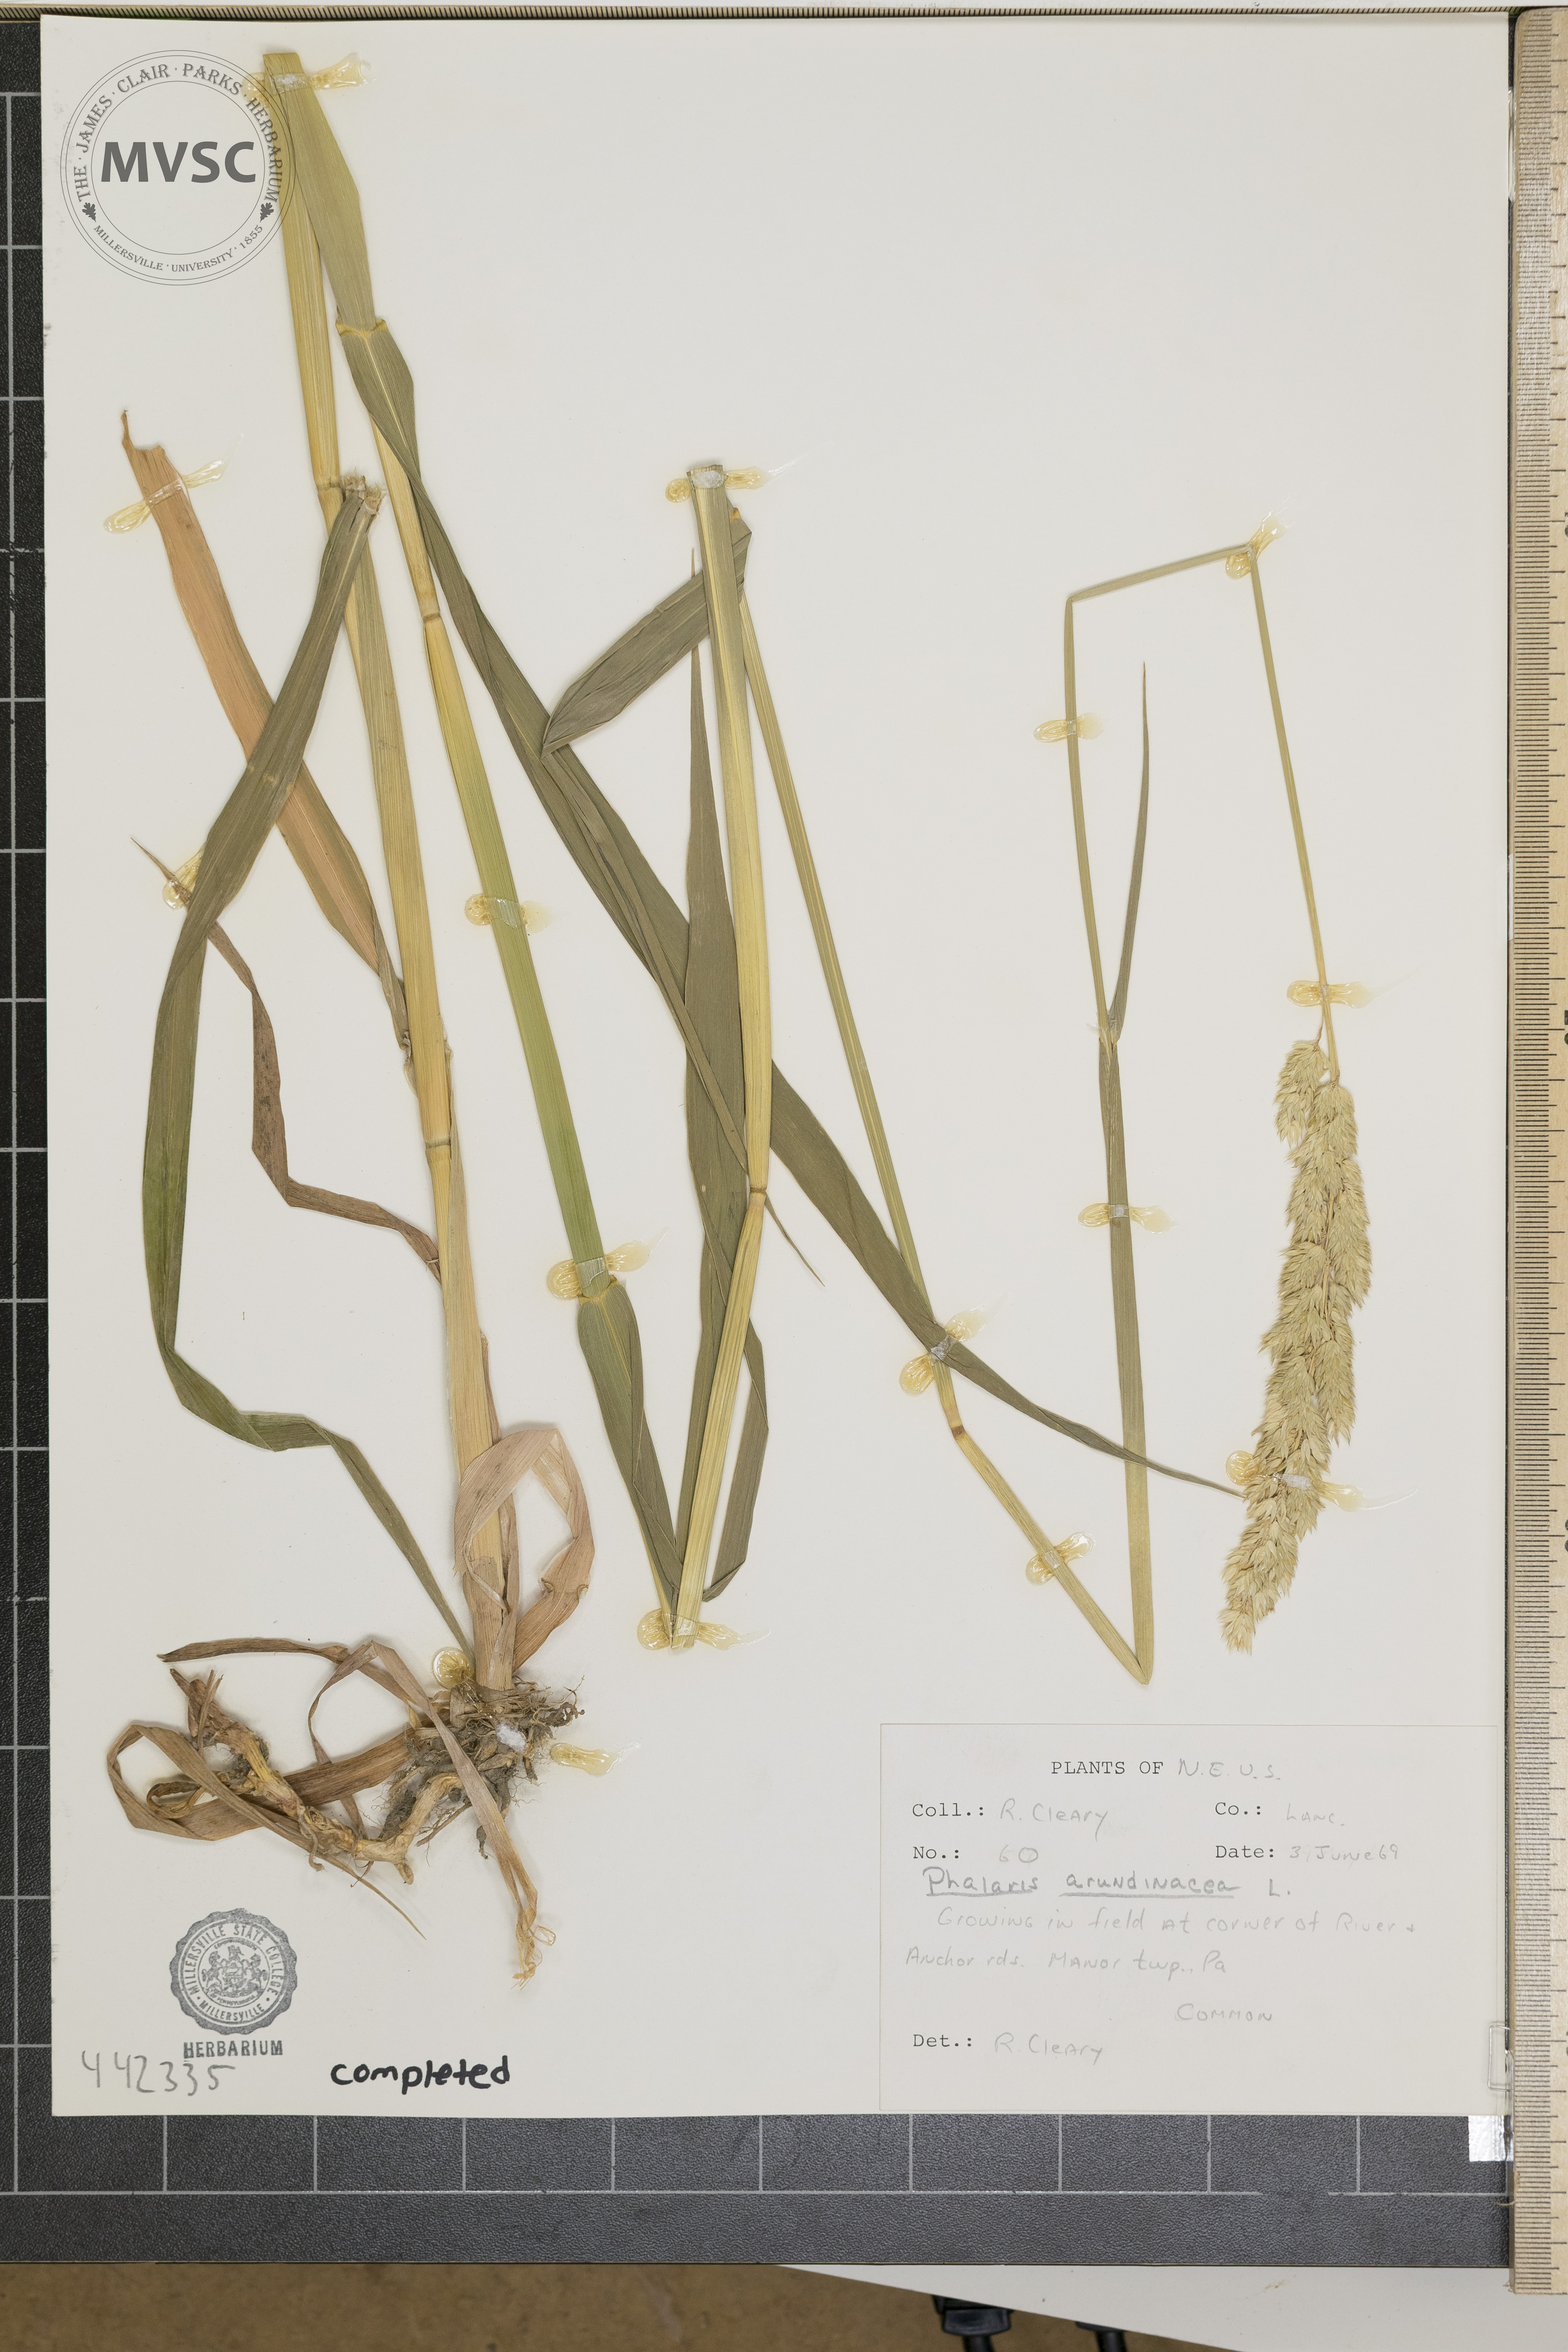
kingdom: Plantae
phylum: Tracheophyta
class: Liliopsida
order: Poales
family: Poaceae
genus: Phalaris
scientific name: Phalaris arundinacea
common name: Reed canary-grass
